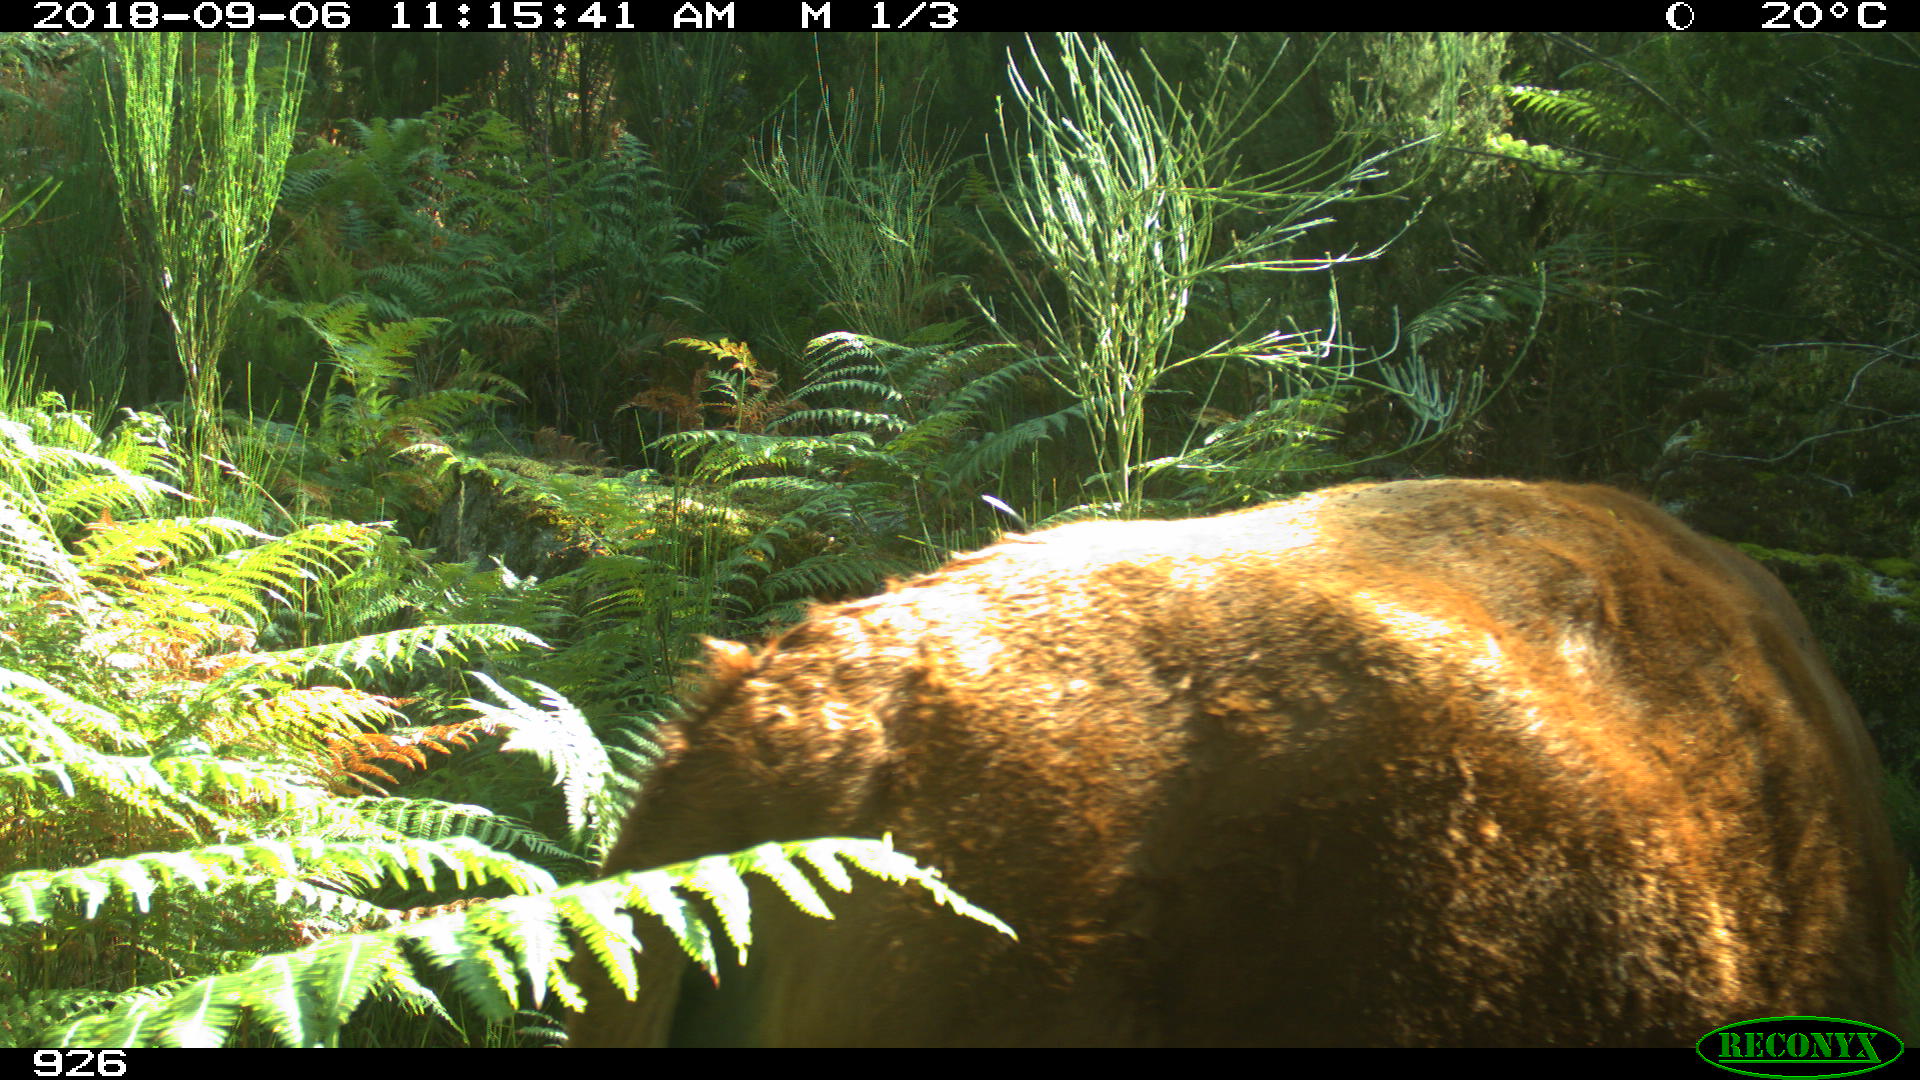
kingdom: Animalia
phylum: Chordata
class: Mammalia
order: Artiodactyla
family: Bovidae
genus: Bos
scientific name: Bos taurus
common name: Domesticated cattle
